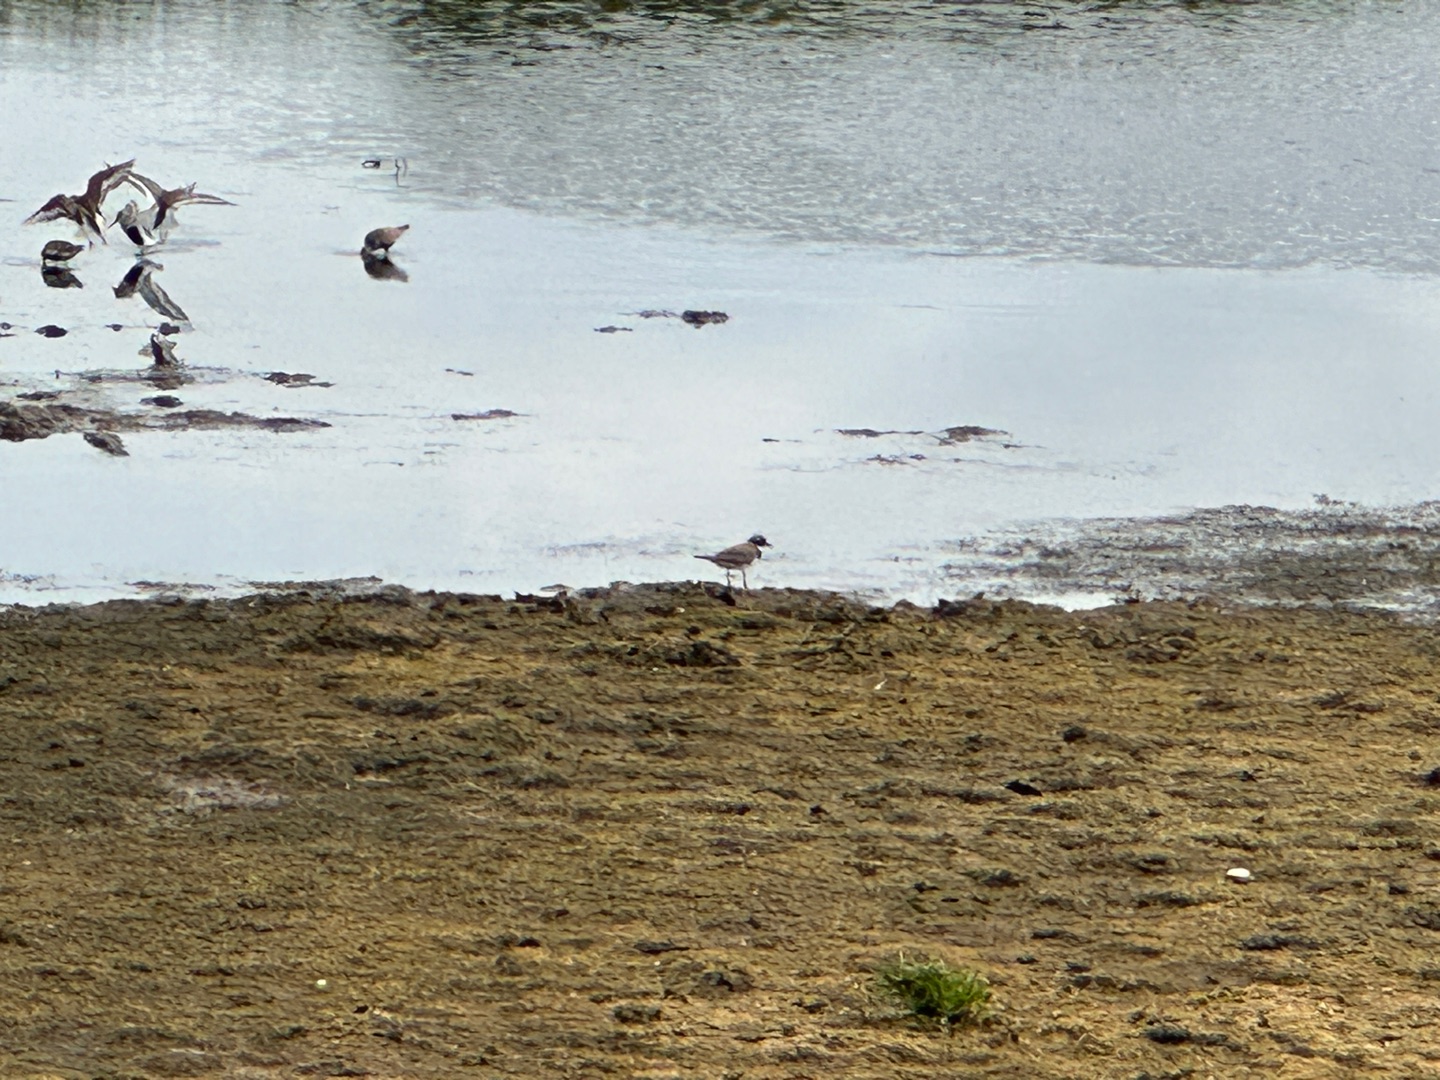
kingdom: Animalia
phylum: Chordata
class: Aves
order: Charadriiformes
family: Scolopacidae
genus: Calidris
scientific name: Calidris alpina
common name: Almindelig ryle
